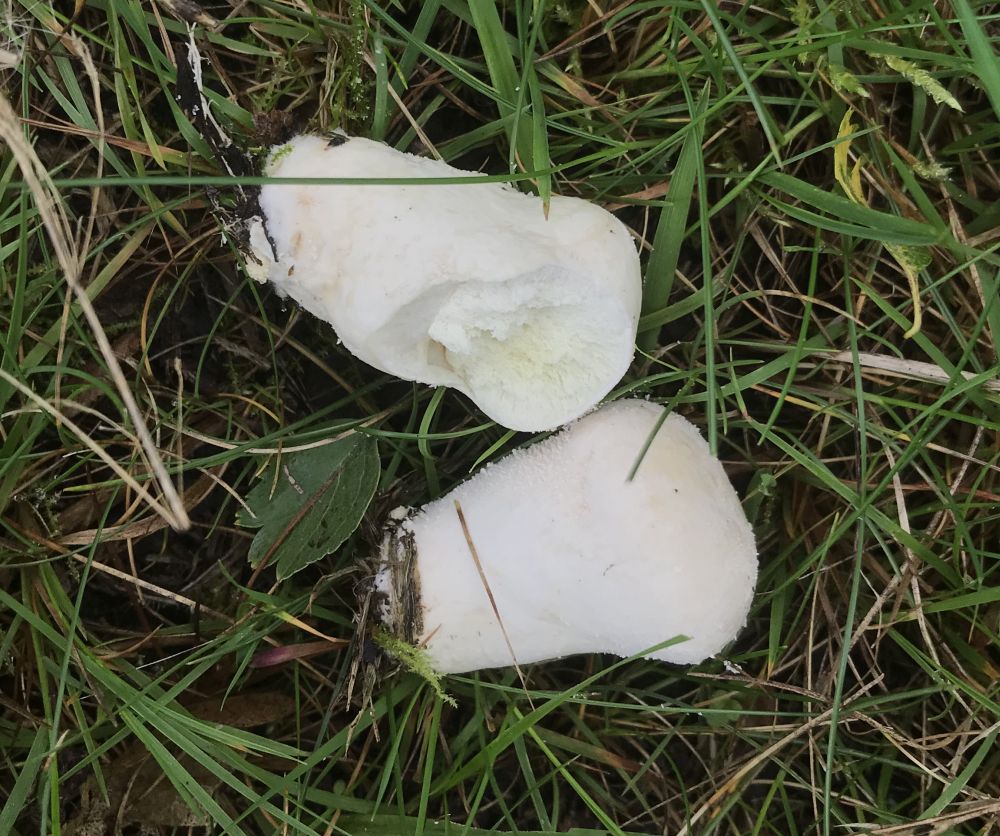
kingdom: Fungi
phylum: Basidiomycota
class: Agaricomycetes
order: Agaricales
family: Lycoperdaceae
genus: Lycoperdon
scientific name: Lycoperdon pratense
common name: flad støvbold
